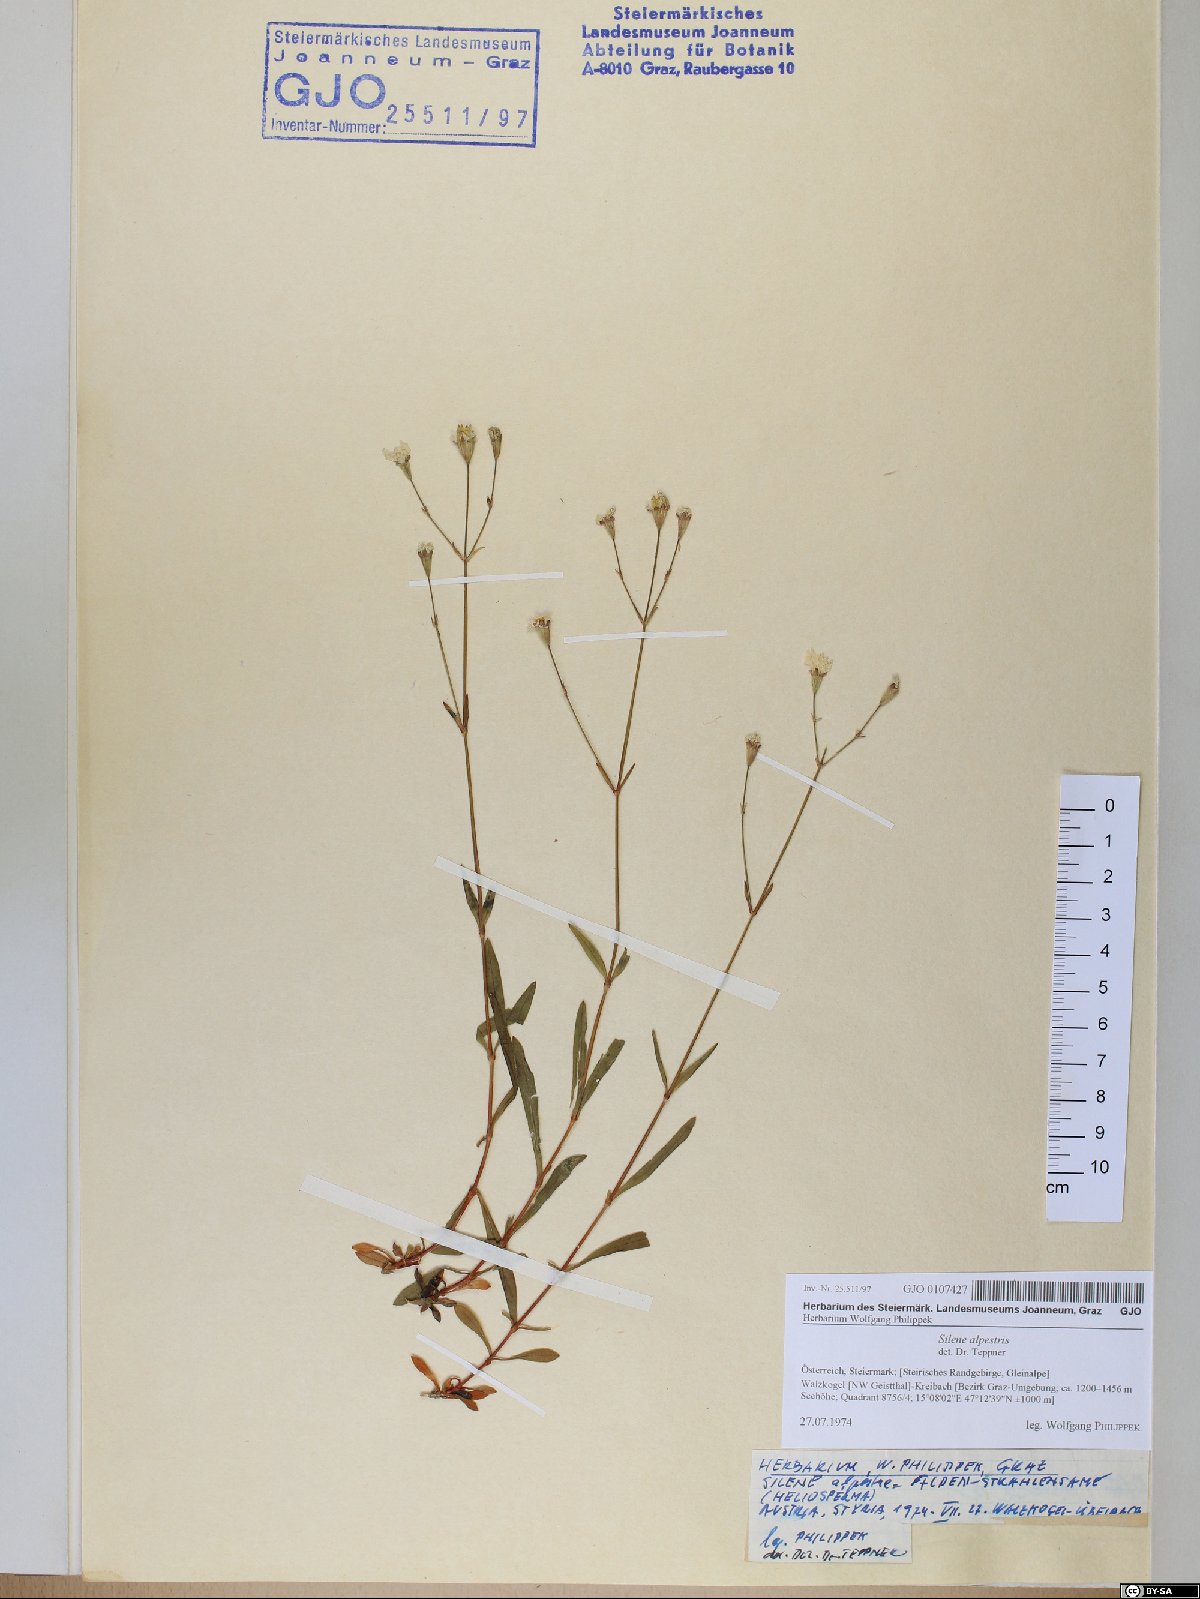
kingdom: Plantae
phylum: Tracheophyta
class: Magnoliopsida
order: Caryophyllales
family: Caryophyllaceae
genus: Heliosperma
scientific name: Heliosperma alpestre
